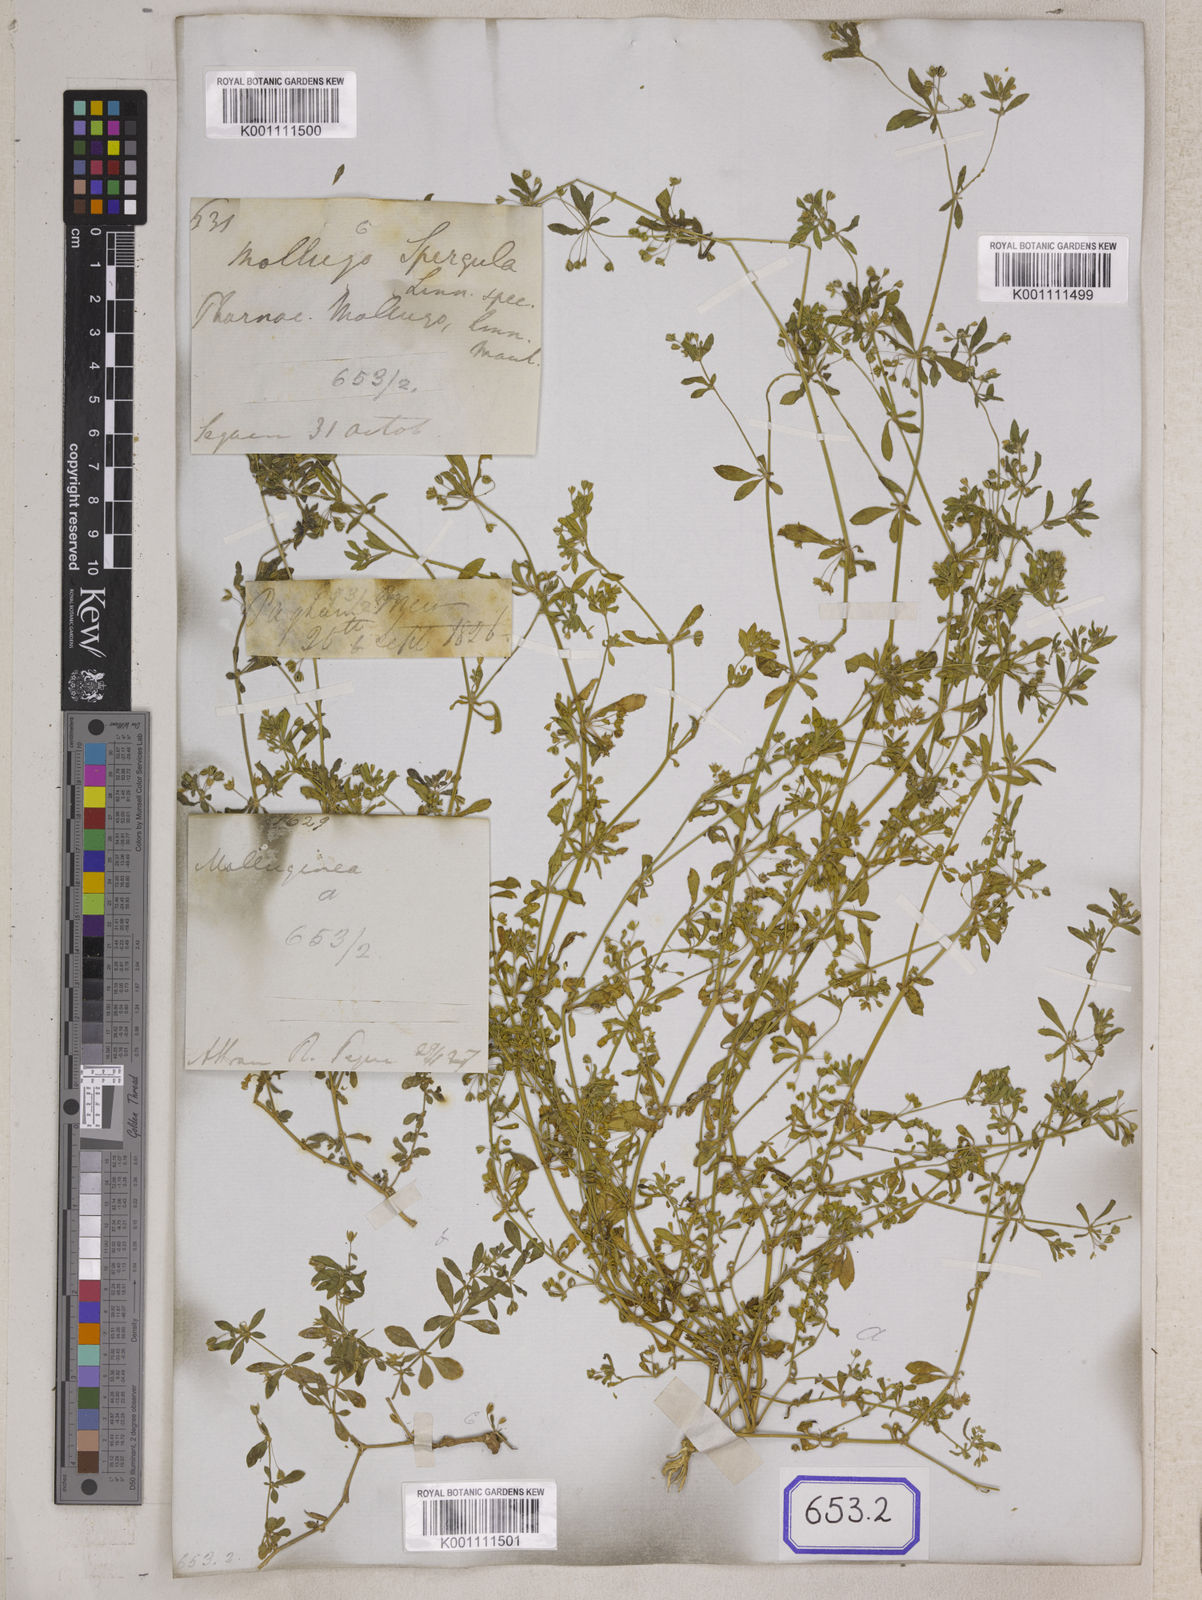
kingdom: Plantae
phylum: Tracheophyta
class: Magnoliopsida
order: Caryophyllales
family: Molluginaceae
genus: Glinus
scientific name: Glinus oppositifolius
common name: Slender carpetweed
